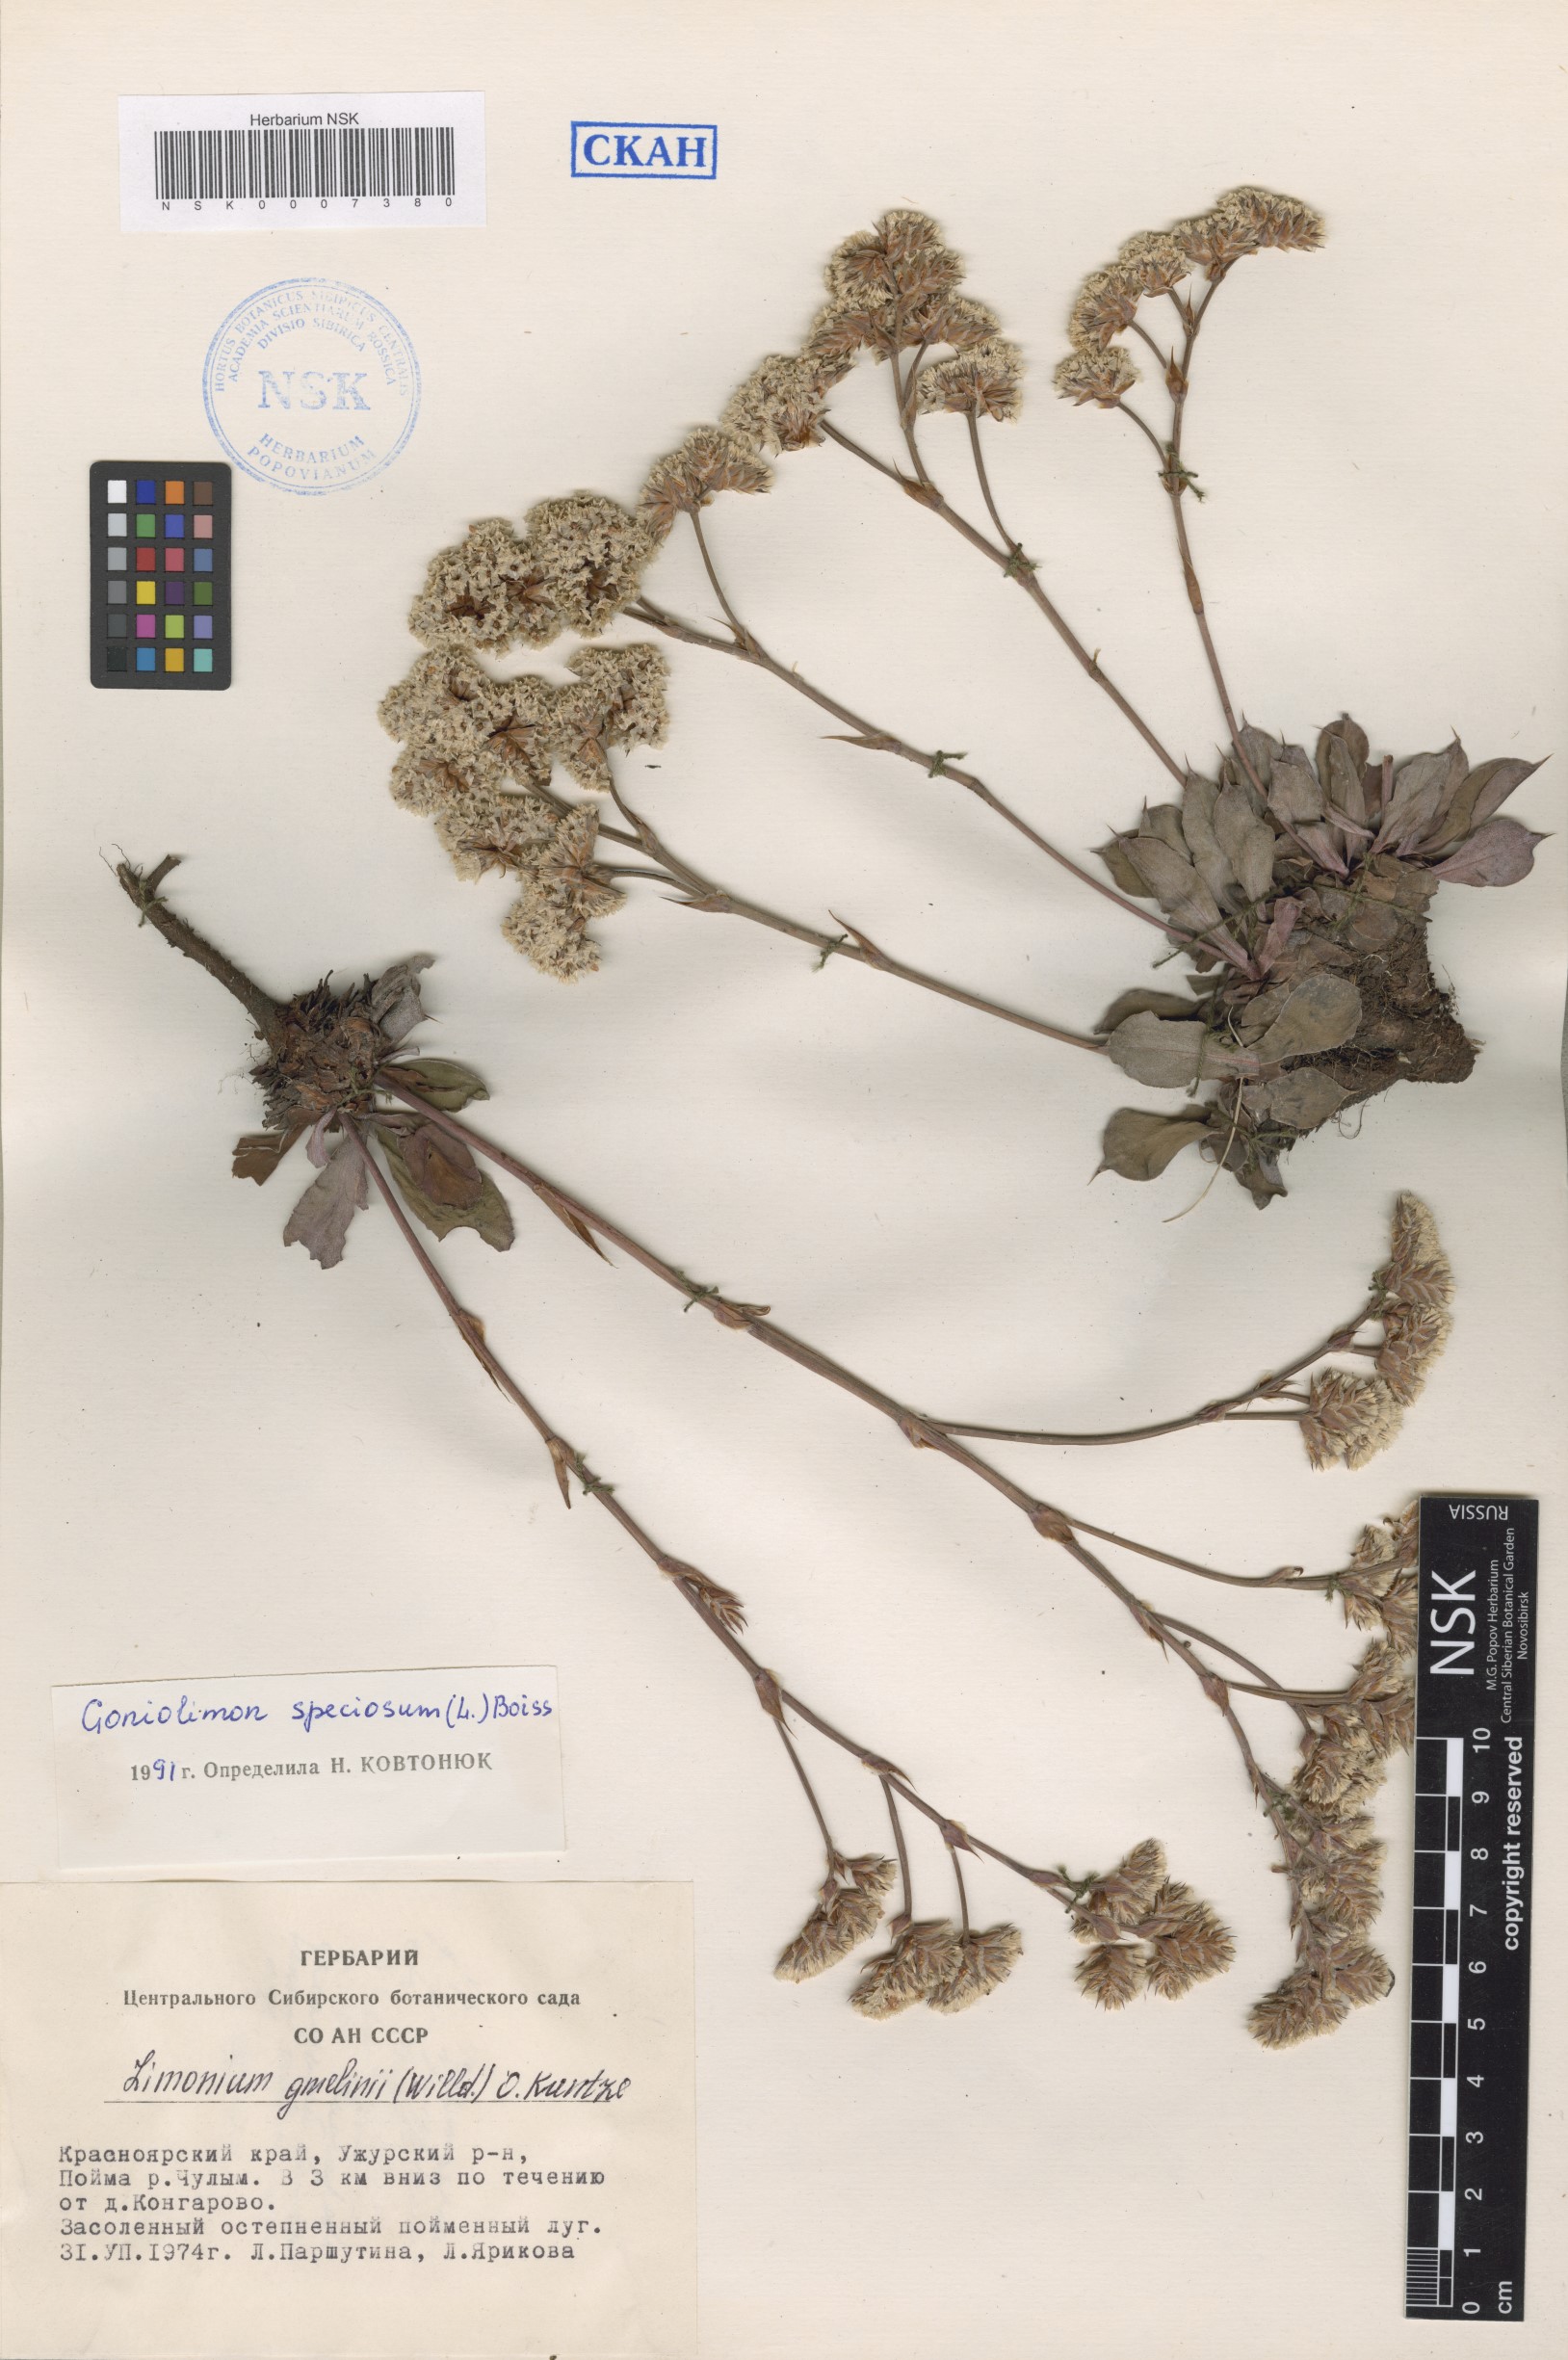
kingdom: Plantae
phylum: Tracheophyta
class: Magnoliopsida
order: Caryophyllales
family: Plumbaginaceae
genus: Goniolimon
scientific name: Goniolimon speciosum
